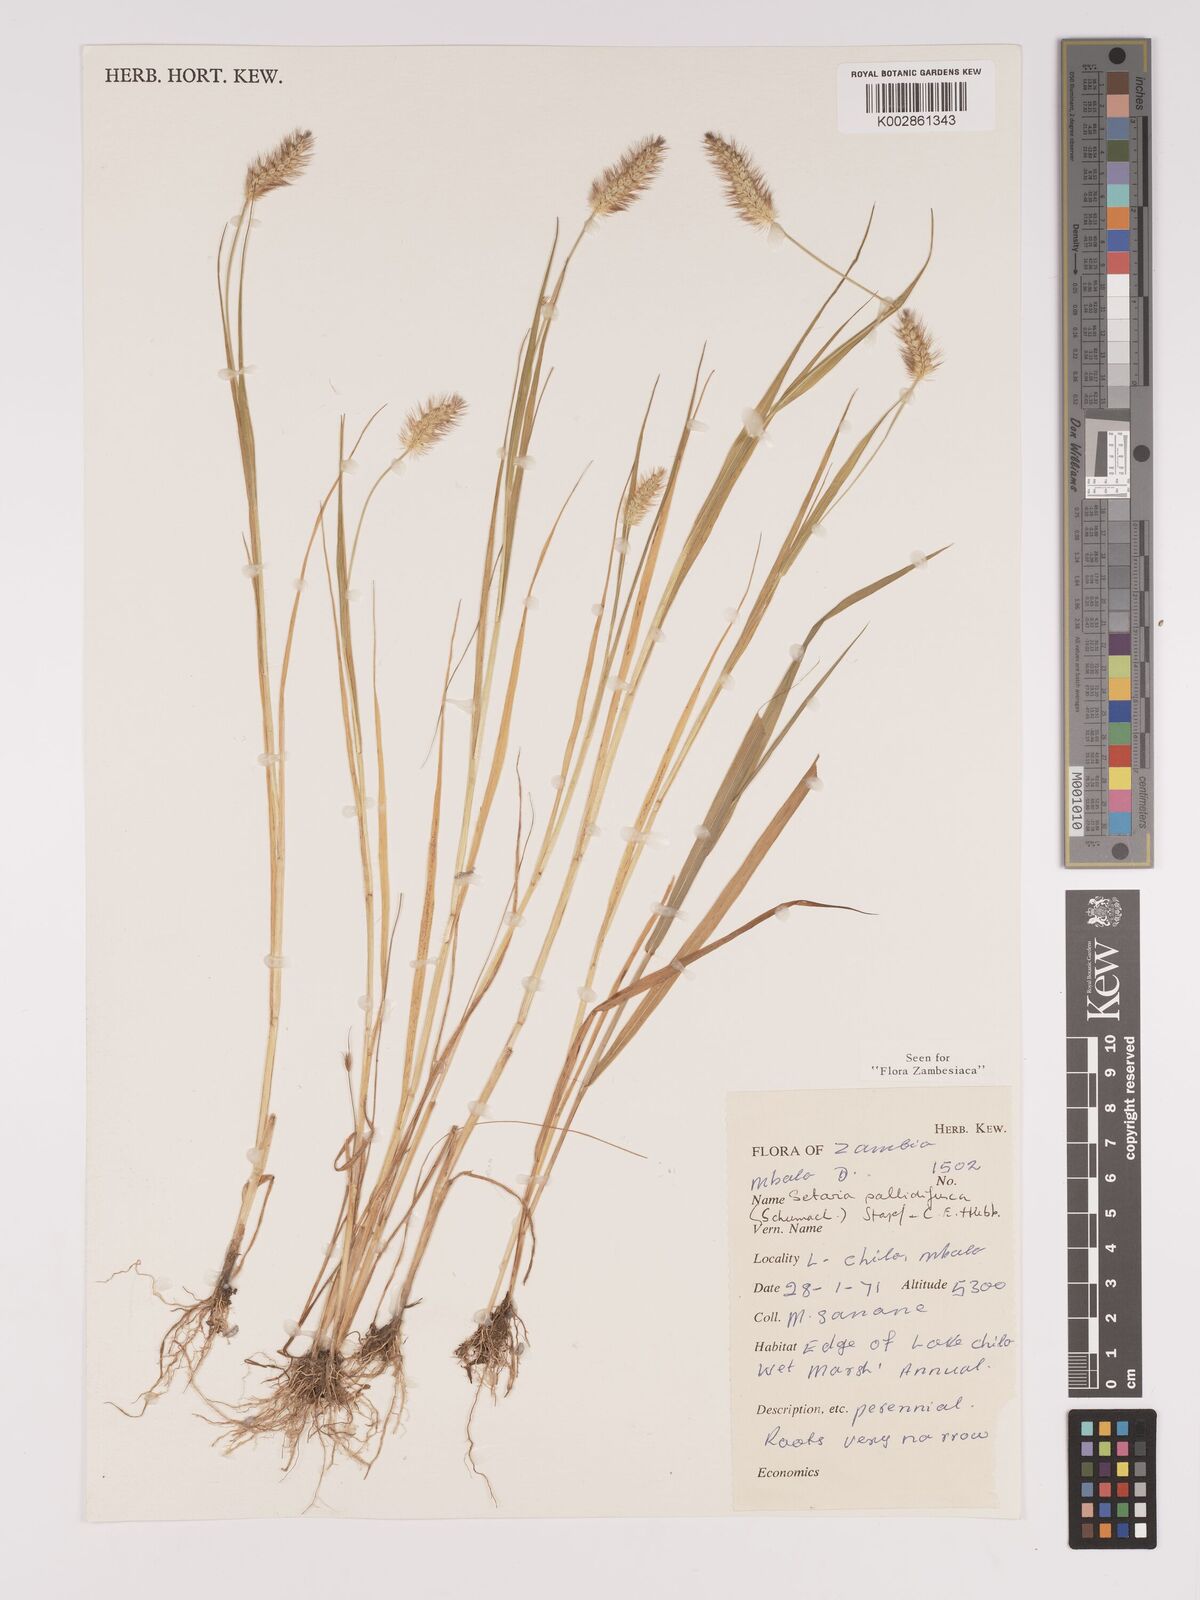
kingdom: Plantae
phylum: Tracheophyta
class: Liliopsida
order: Poales
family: Poaceae
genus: Setaria
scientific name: Setaria pumila
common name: Yellow bristle-grass
